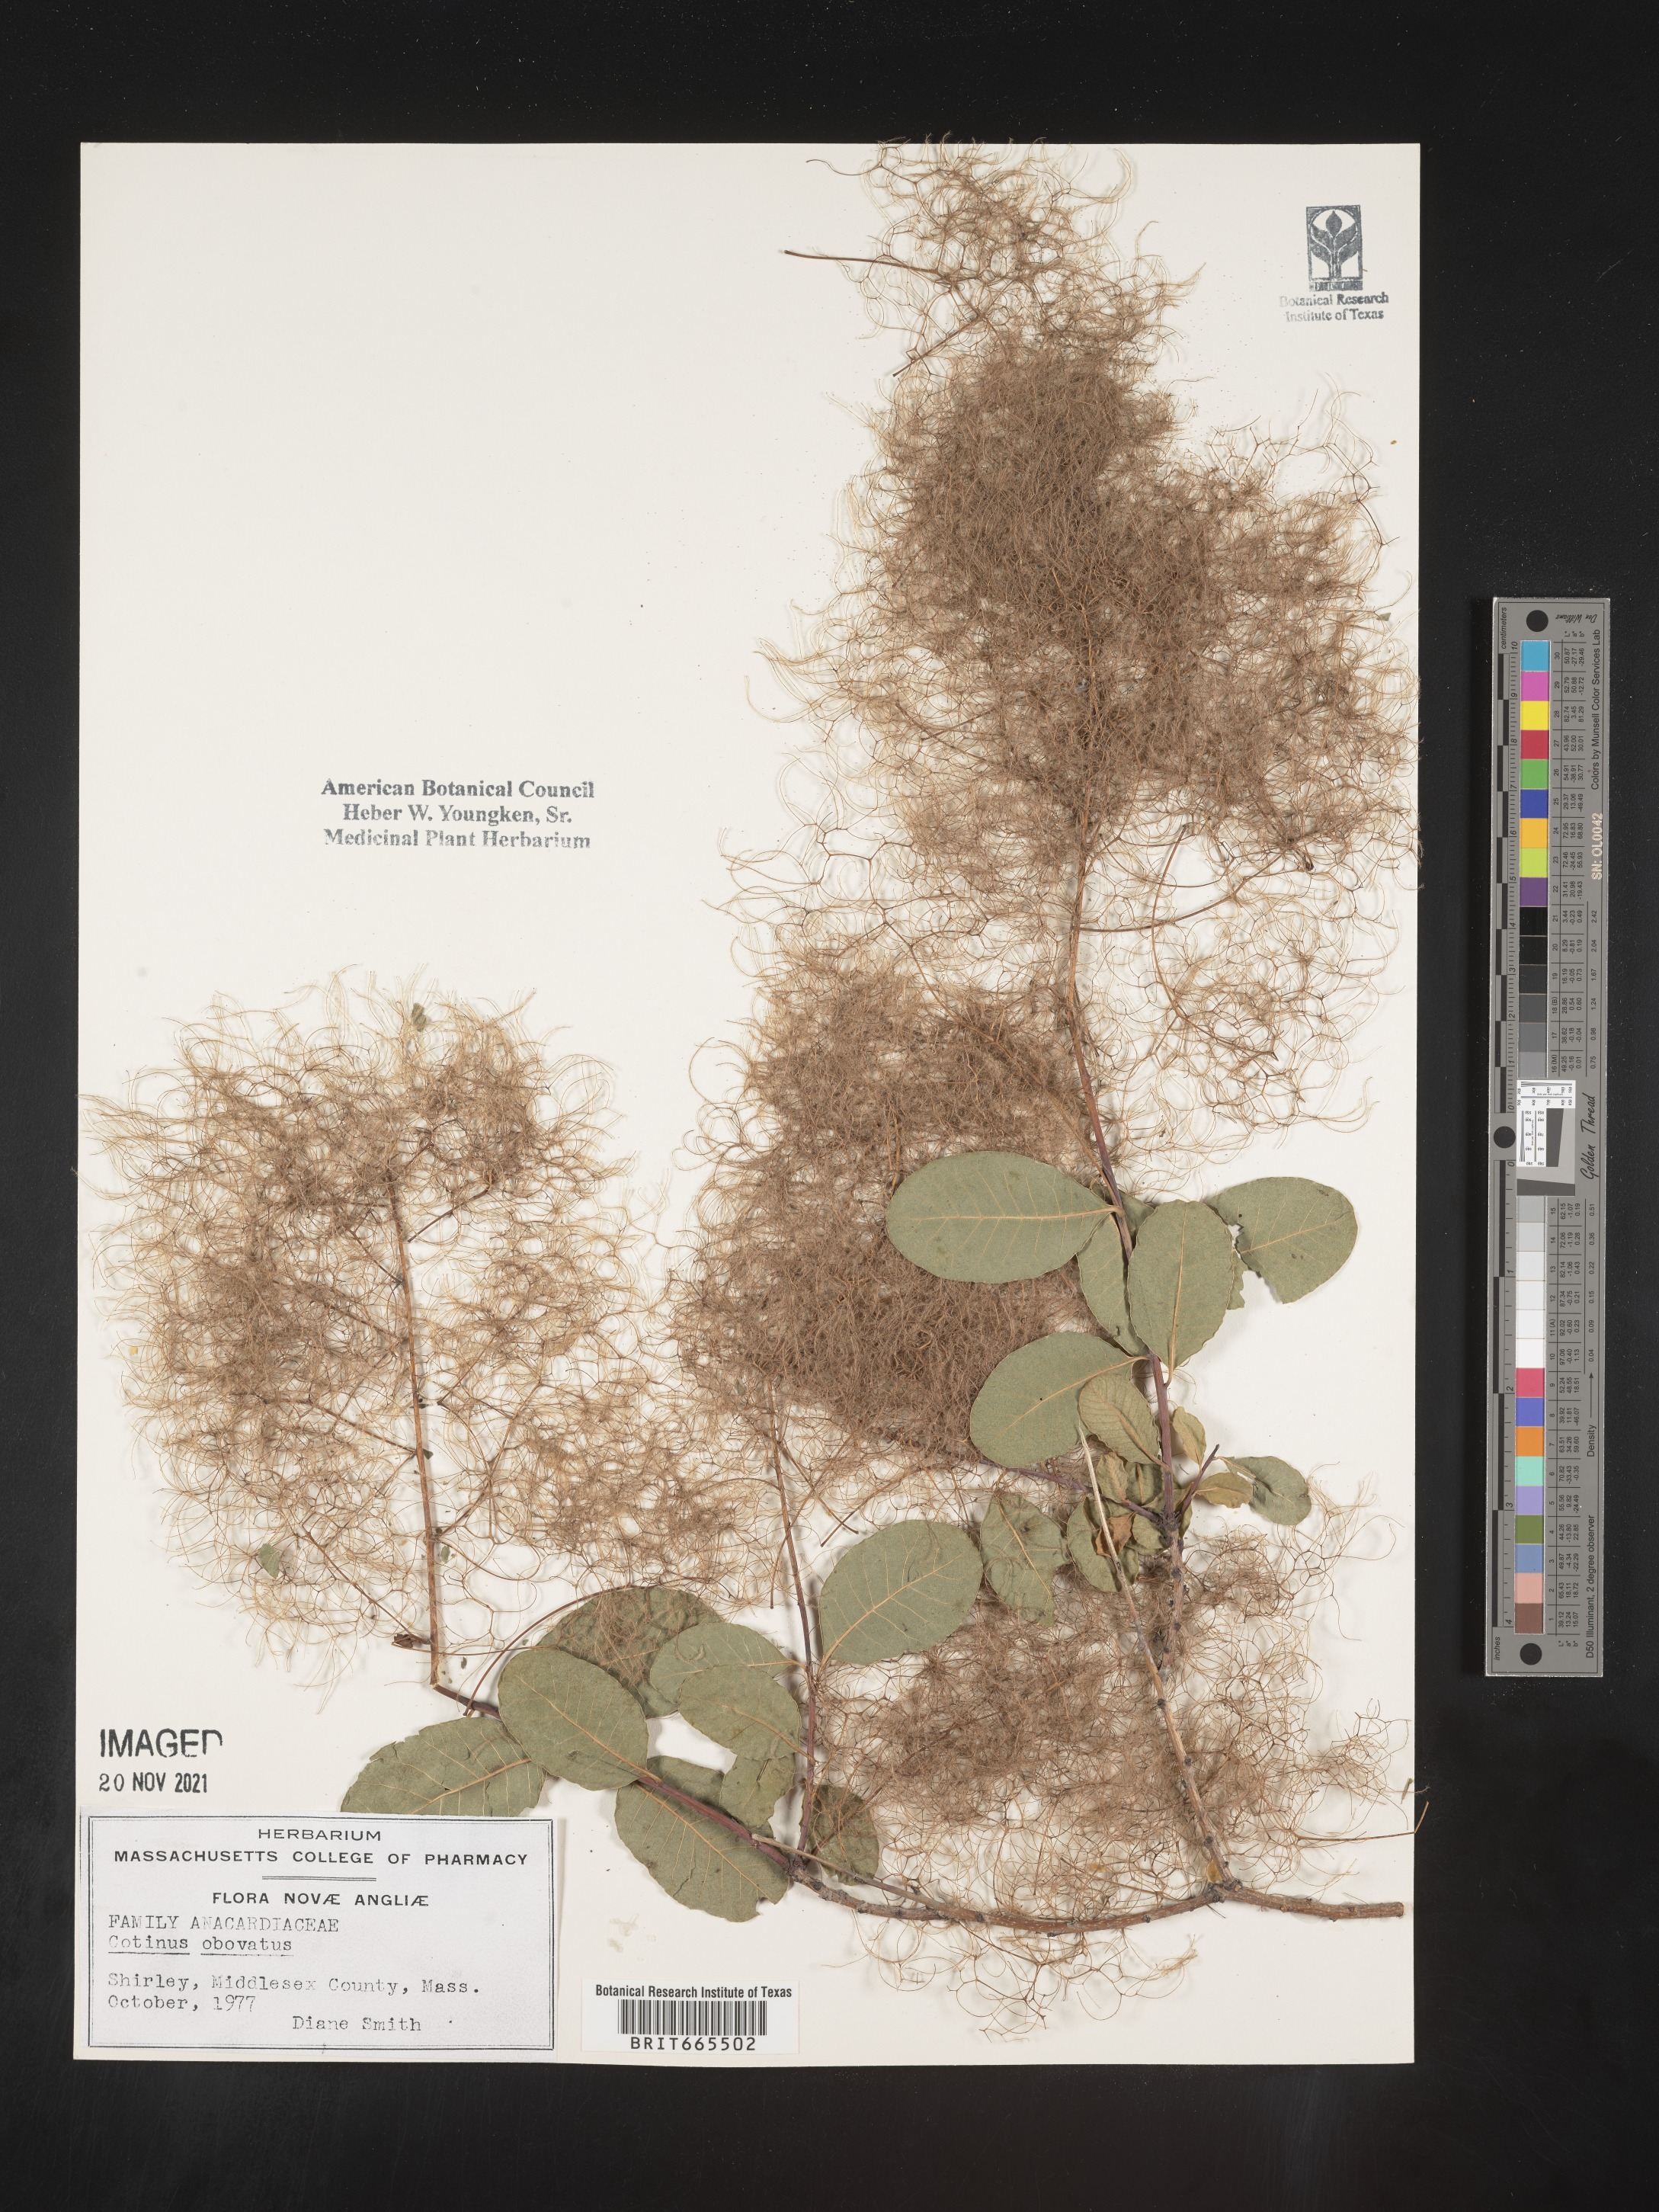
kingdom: Plantae
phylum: Tracheophyta
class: Magnoliopsida
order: Sapindales
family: Anacardiaceae
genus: Cotinus
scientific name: Cotinus obovatus
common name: Chittamwood
